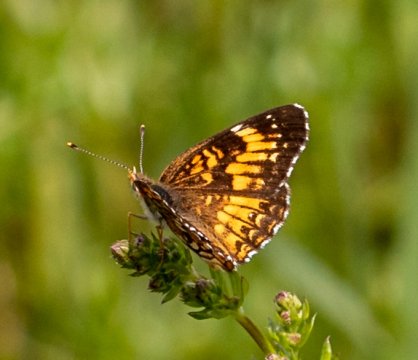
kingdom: Animalia
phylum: Arthropoda
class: Insecta
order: Lepidoptera
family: Nymphalidae
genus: Chlosyne
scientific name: Chlosyne harrisii
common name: Harris's Checkerspot
